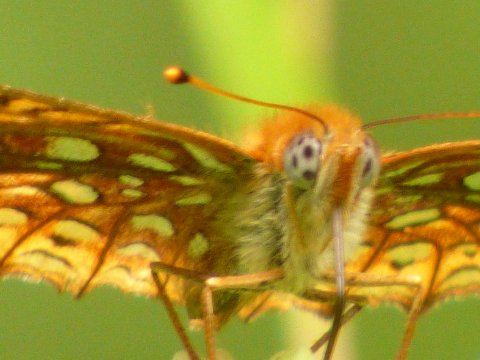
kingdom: Animalia
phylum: Arthropoda
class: Insecta
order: Lepidoptera
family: Nymphalidae
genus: Speyeria
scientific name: Speyeria atlantis
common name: Atlantis Fritillary
